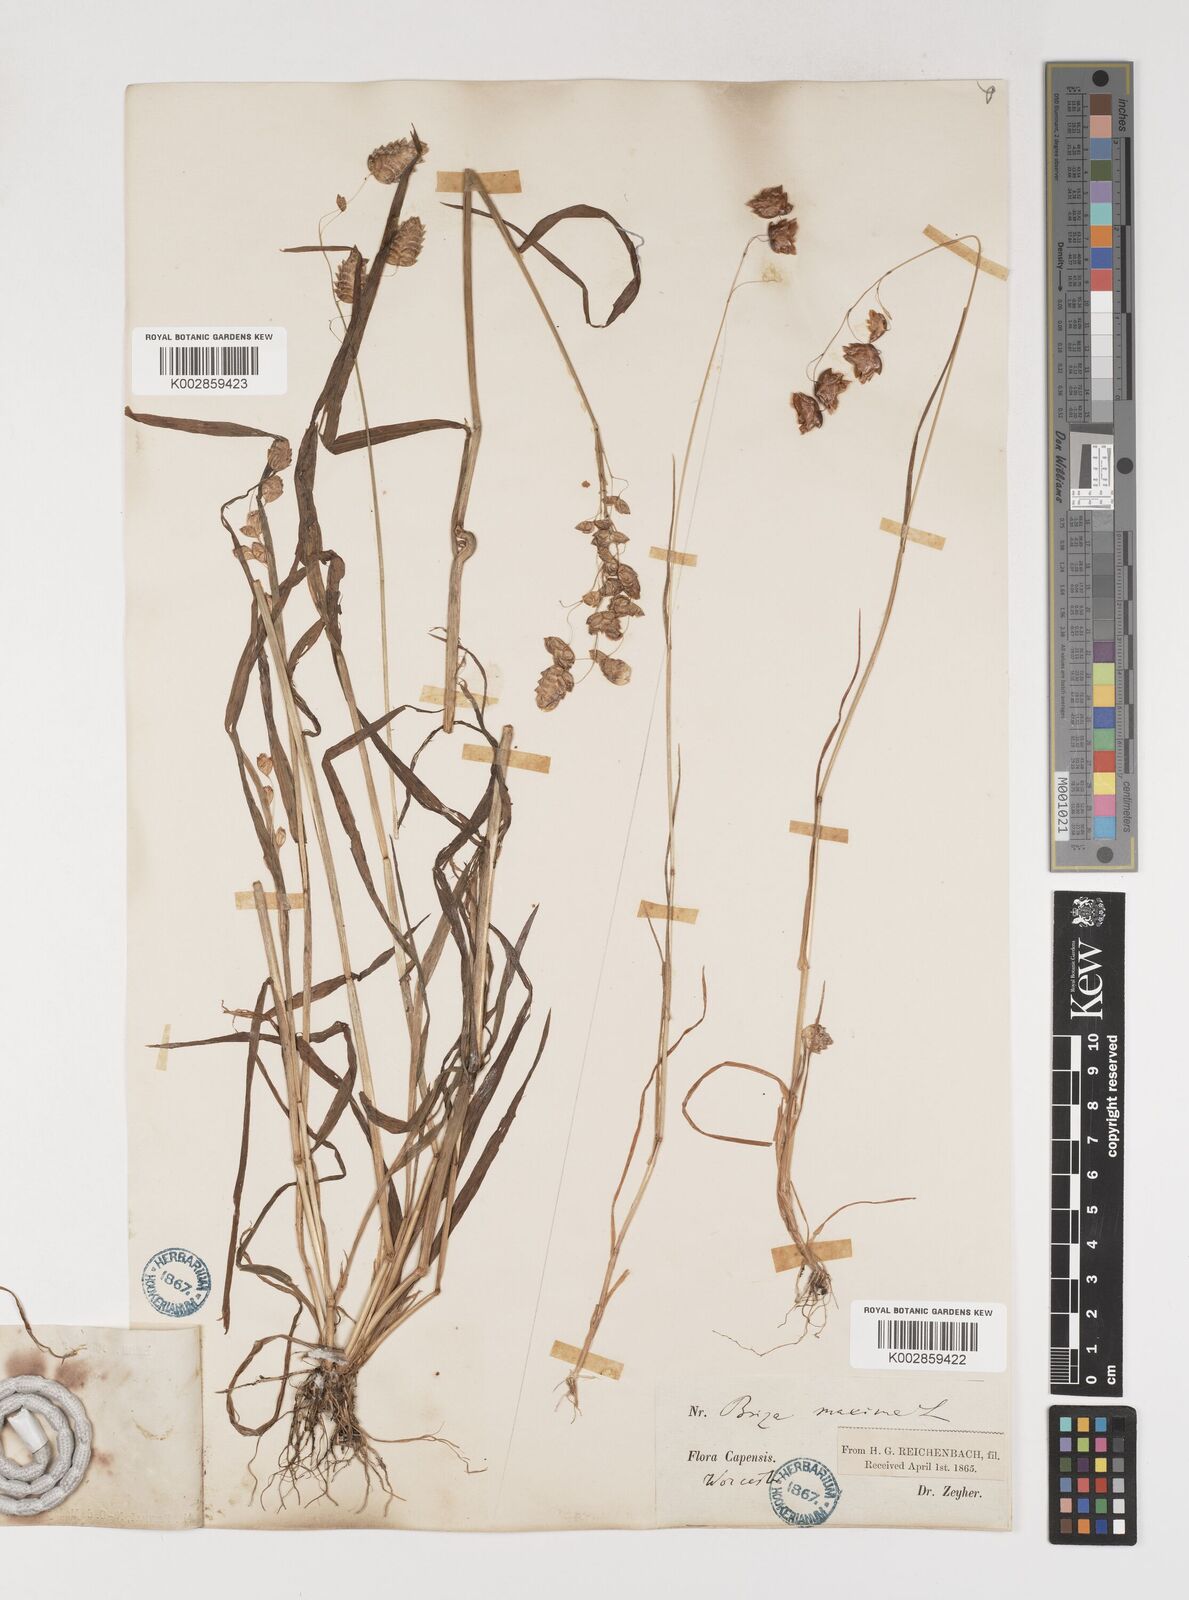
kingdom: Plantae
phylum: Tracheophyta
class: Liliopsida
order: Poales
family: Poaceae
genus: Briza
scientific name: Briza maxima
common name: Big quakinggrass
